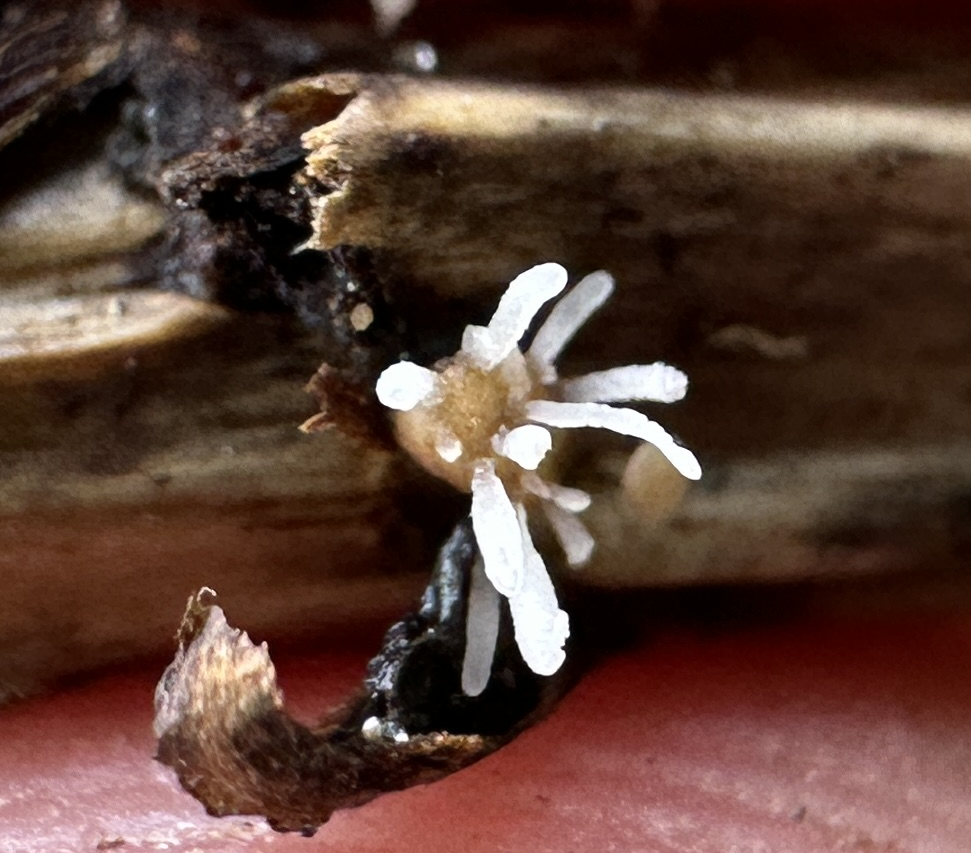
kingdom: Fungi
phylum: Basidiomycota
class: Agaricomycetes
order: Agaricales
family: Typhulaceae
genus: Typhula
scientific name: Typhula
